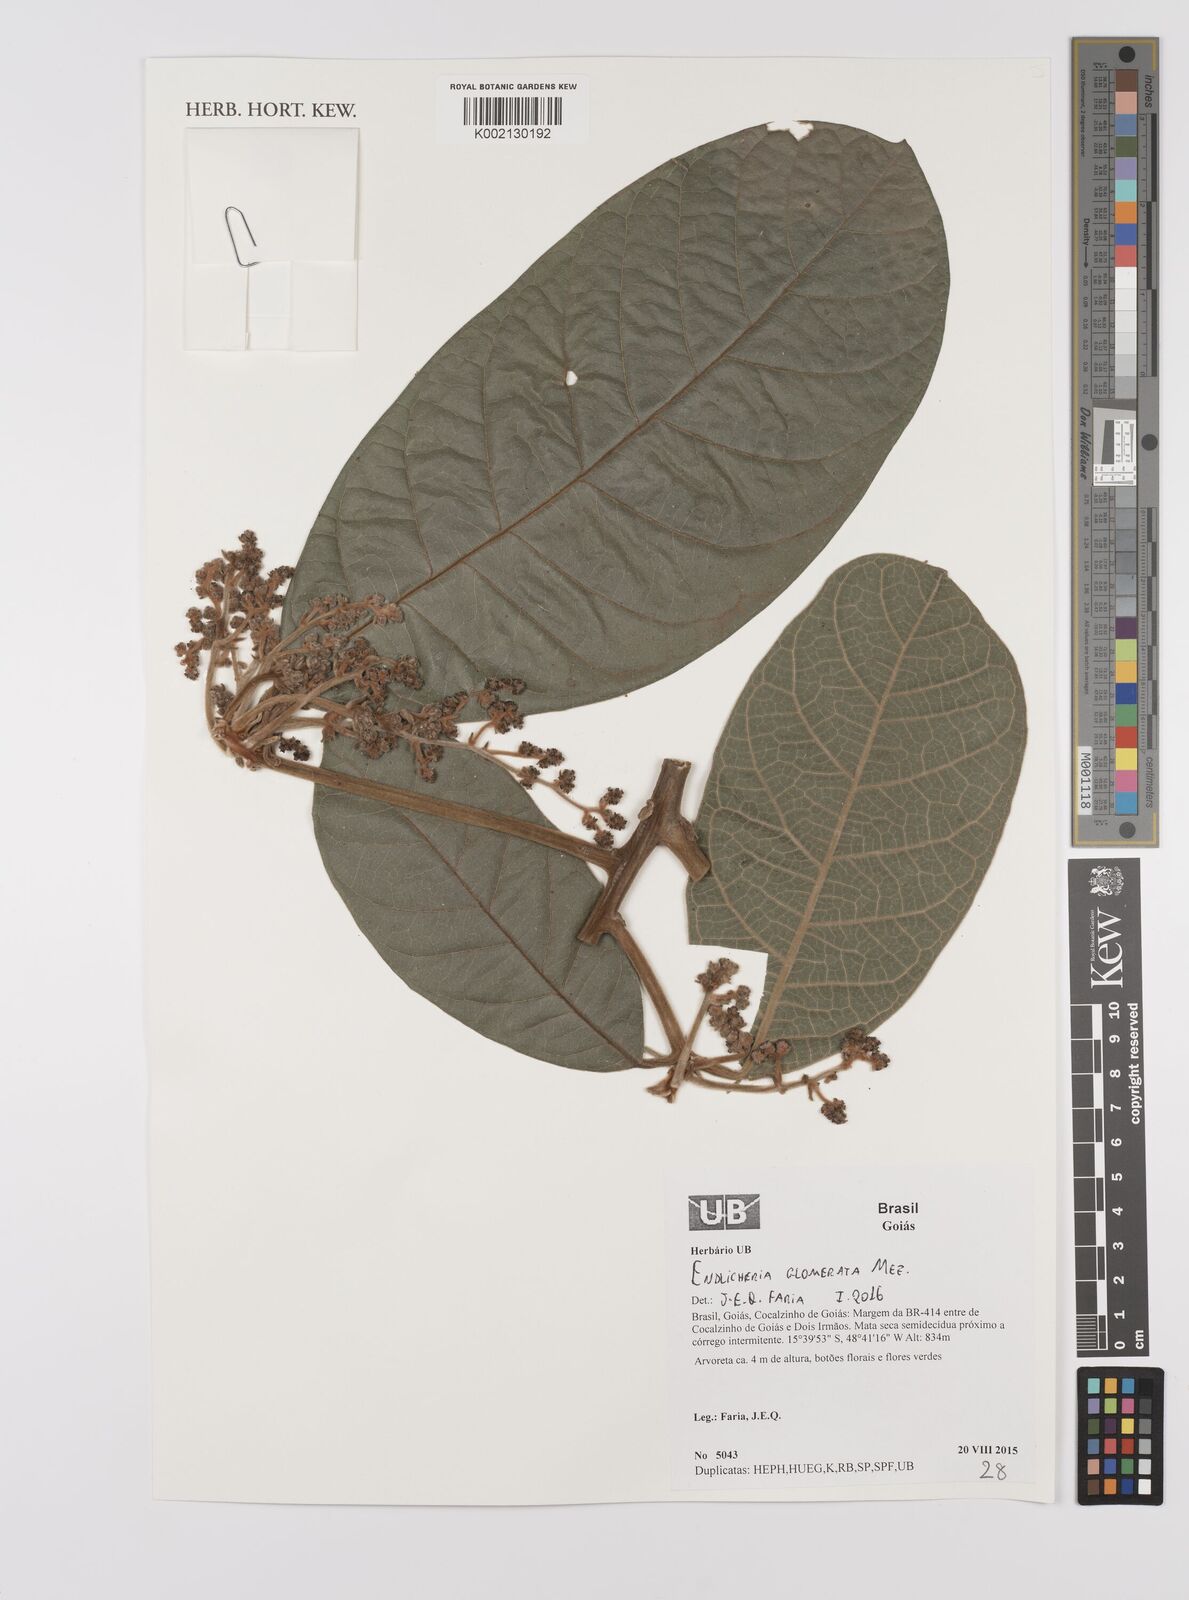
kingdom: Plantae
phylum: Tracheophyta
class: Magnoliopsida
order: Laurales
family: Lauraceae
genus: Endlicheria
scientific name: Endlicheria glomerata
